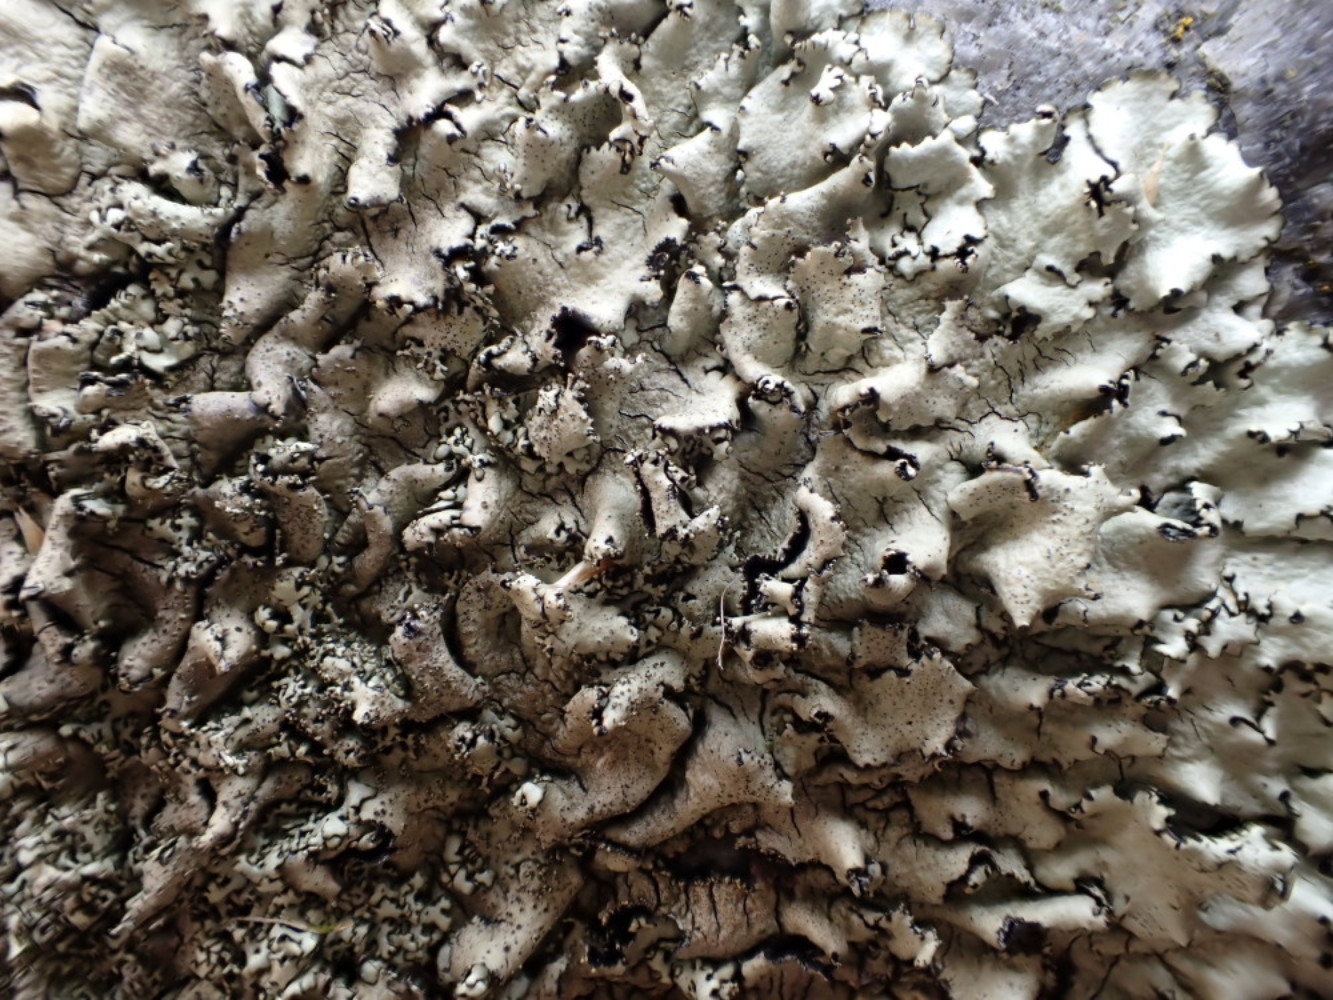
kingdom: Fungi
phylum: Ascomycota
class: Lecanoromycetes
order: Lecanorales
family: Parmeliaceae
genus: Xanthoparmelia
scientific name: Xanthoparmelia conspersa
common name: messing-skållav
